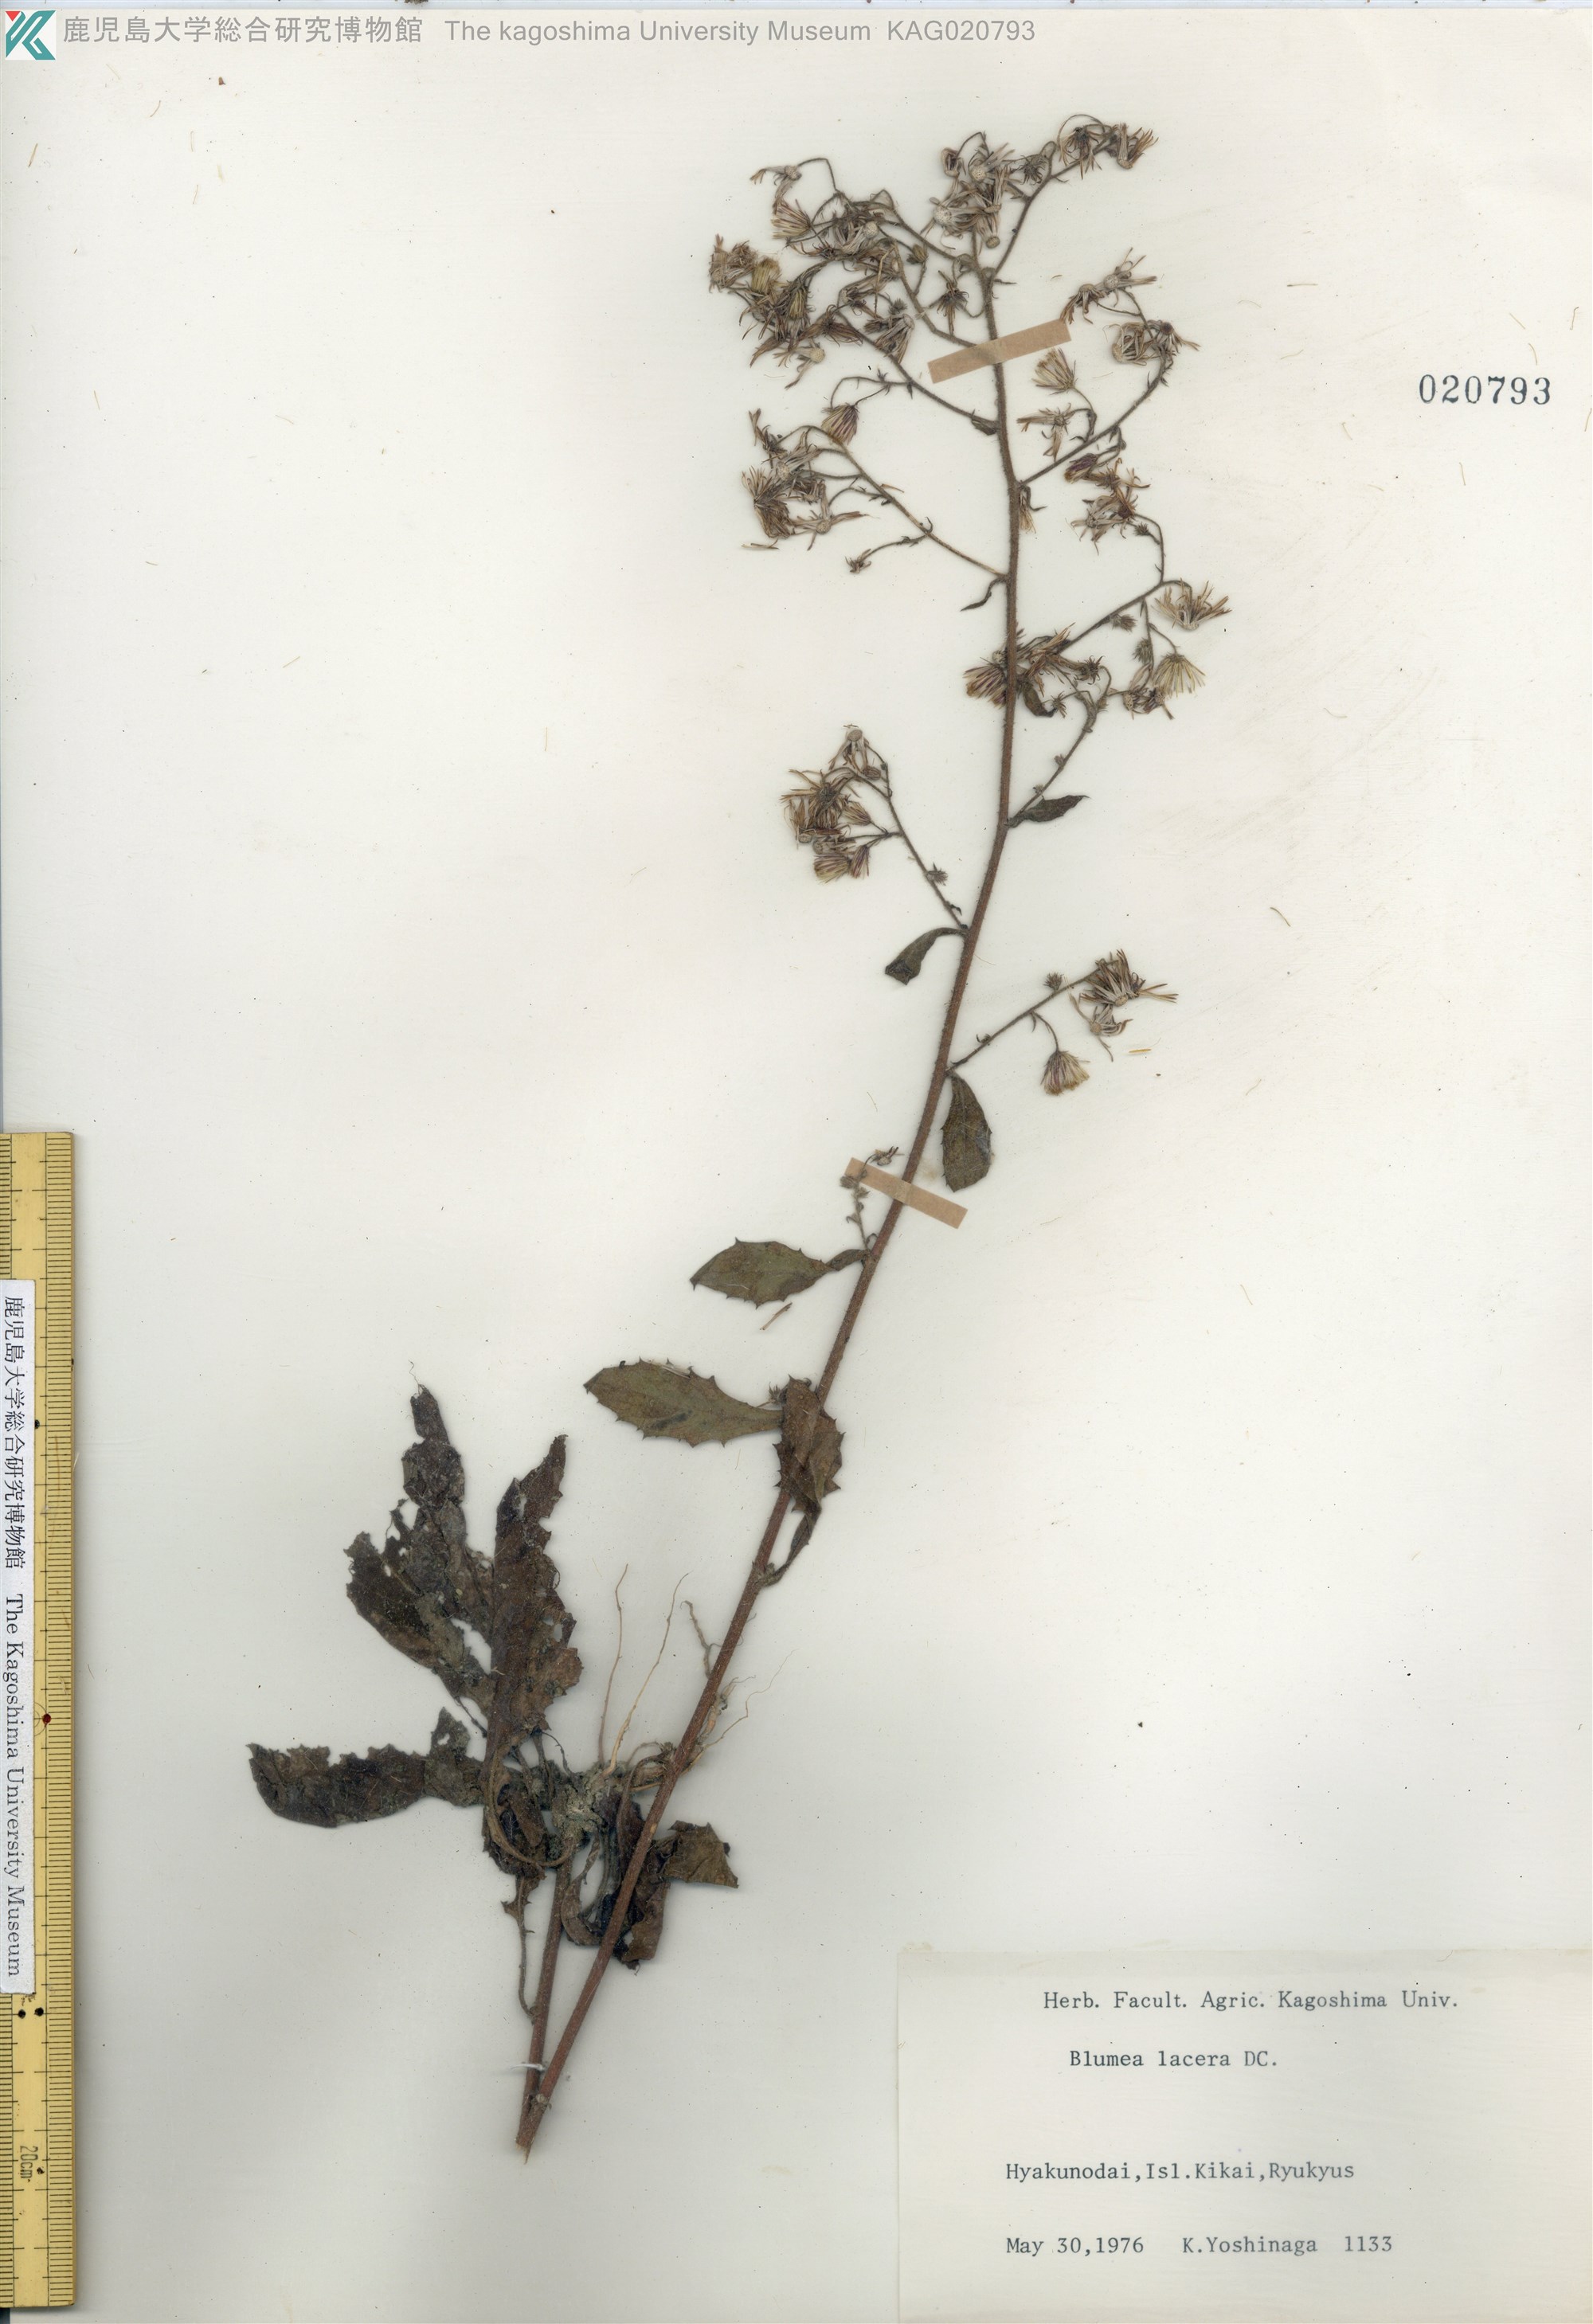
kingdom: Plantae
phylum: Tracheophyta
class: Magnoliopsida
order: Asterales
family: Asteraceae
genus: Blumea
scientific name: Blumea lacera
